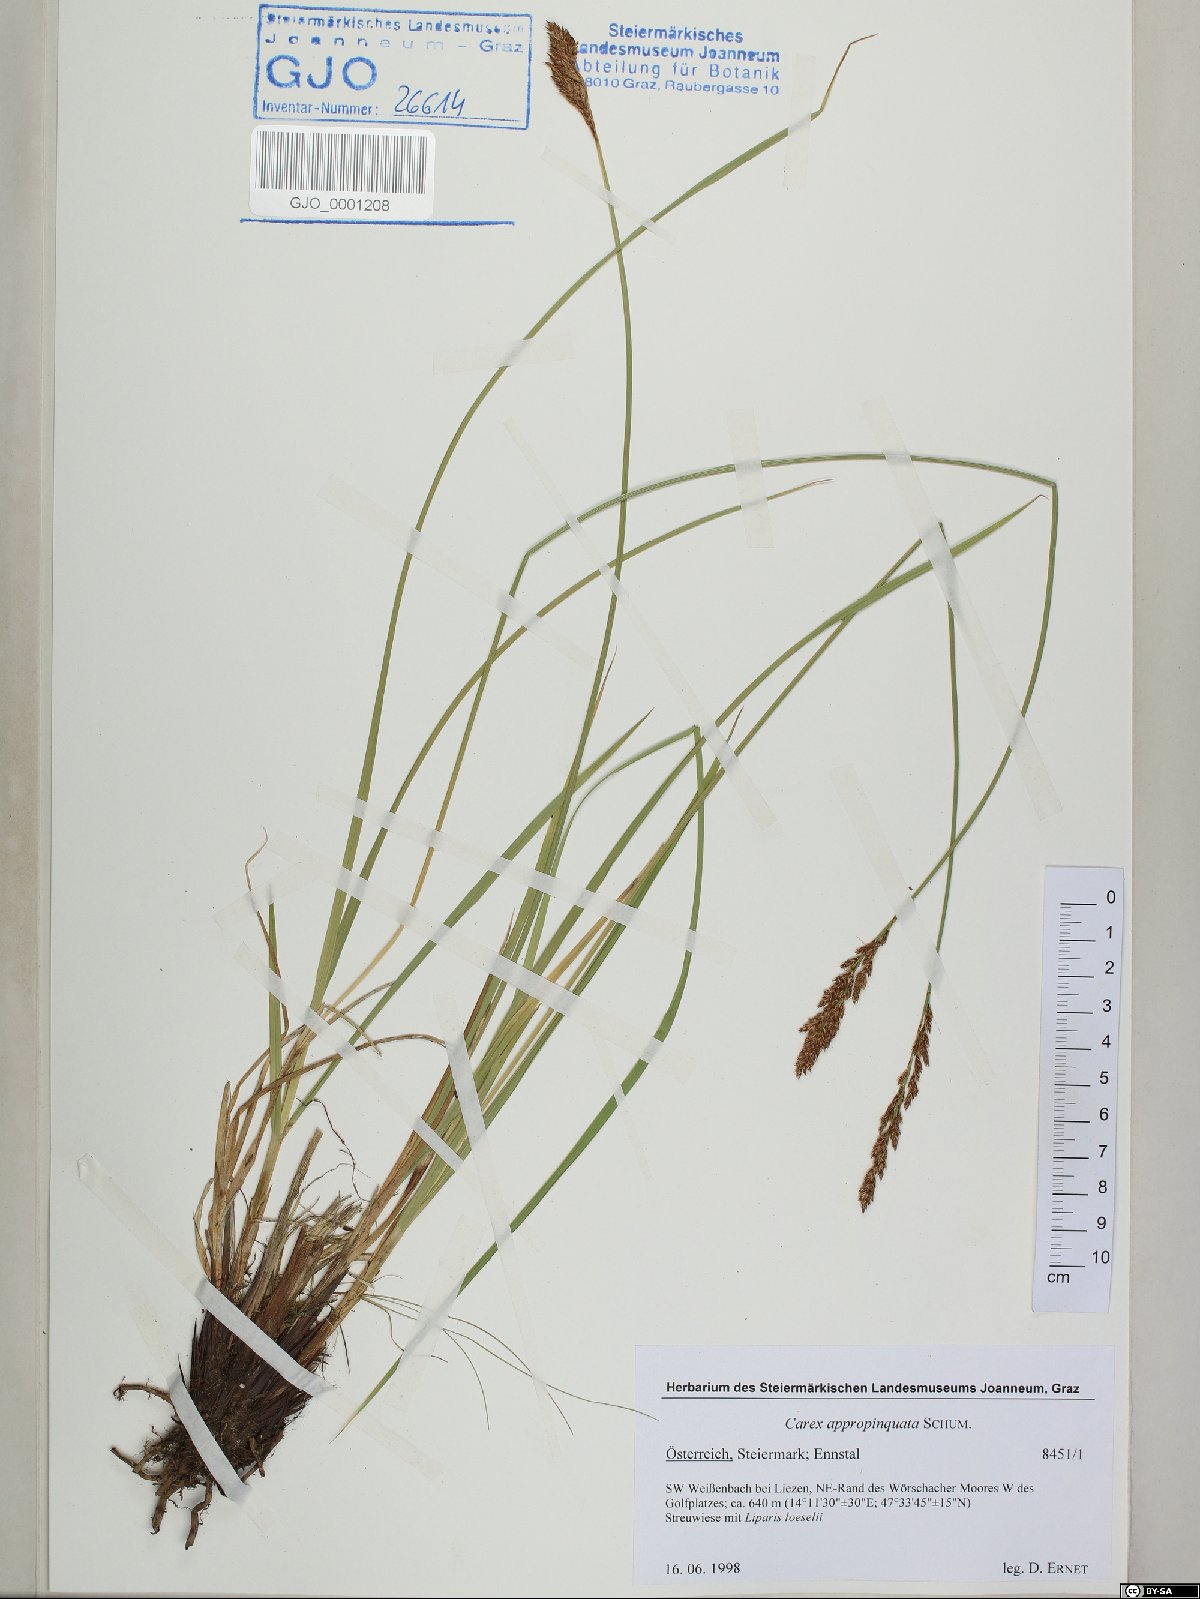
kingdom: Plantae
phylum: Tracheophyta
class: Liliopsida
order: Poales
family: Cyperaceae
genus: Carex
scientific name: Carex appropinquata
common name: Fibrous tussock-sedge
